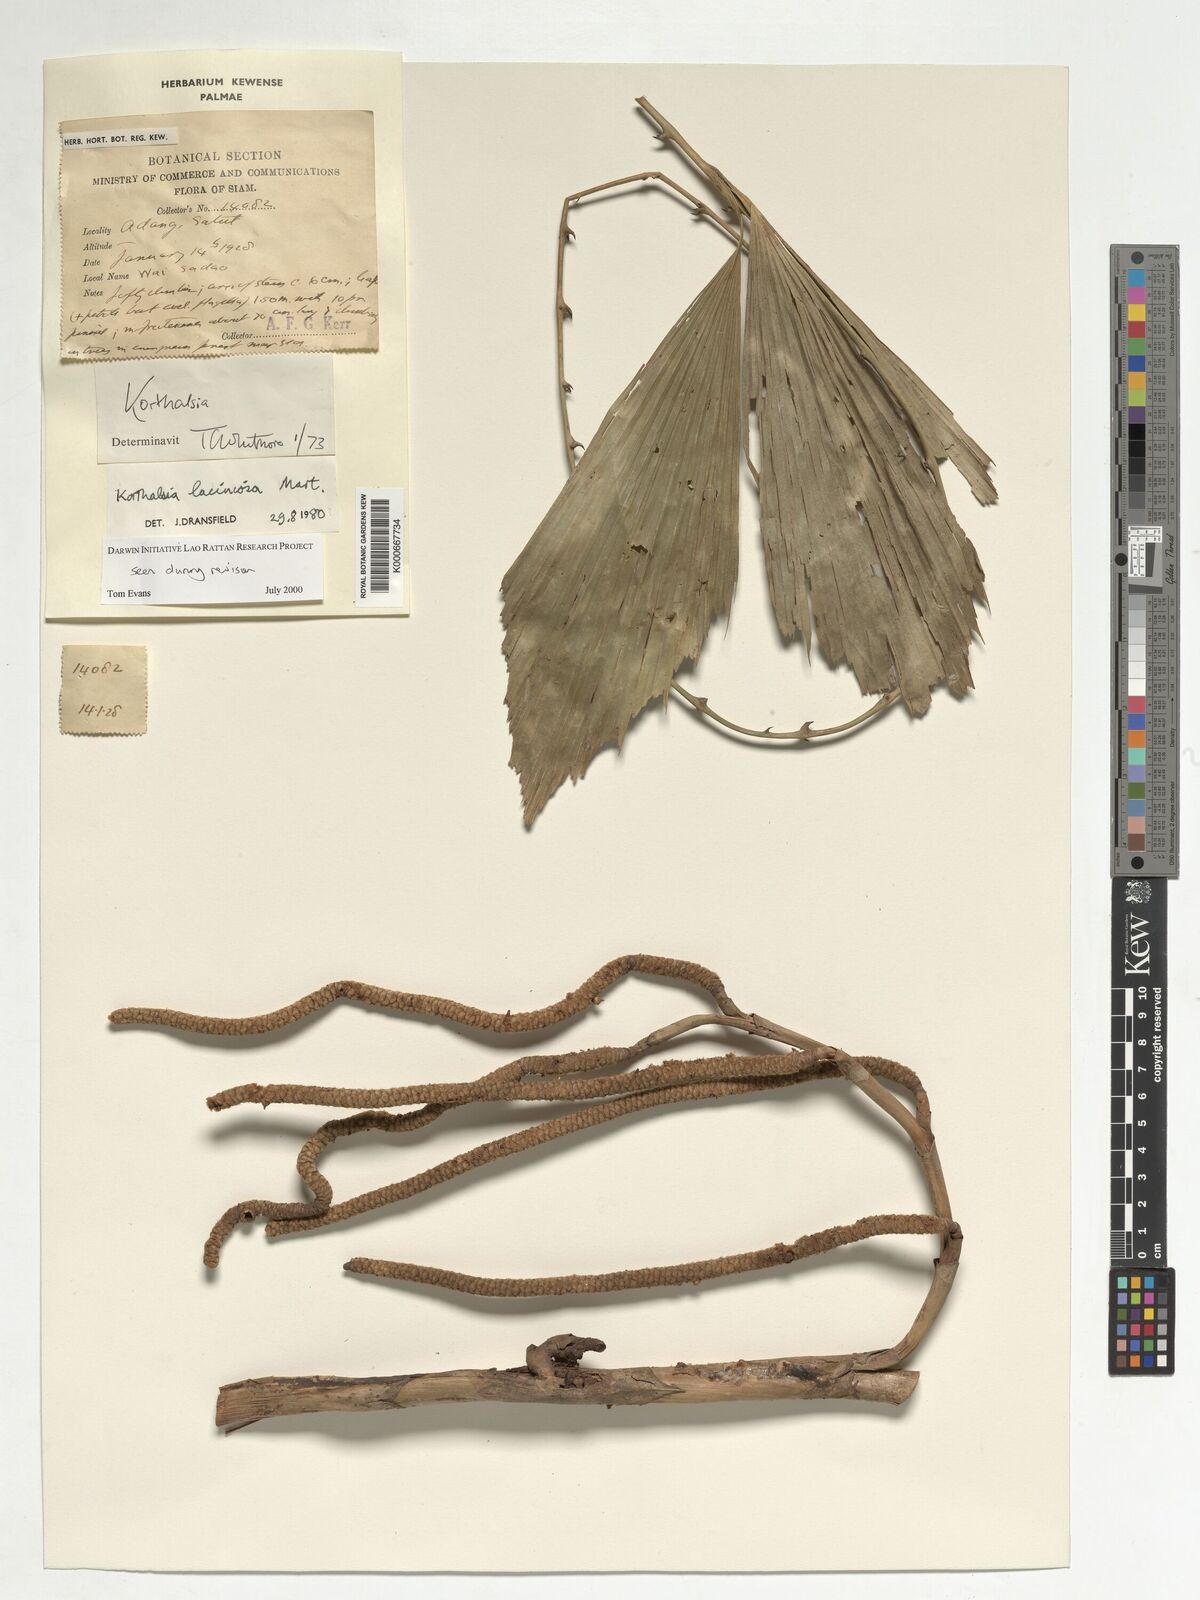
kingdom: Plantae
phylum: Tracheophyta
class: Liliopsida
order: Arecales
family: Arecaceae
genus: Korthalsia
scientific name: Korthalsia laciniosa
